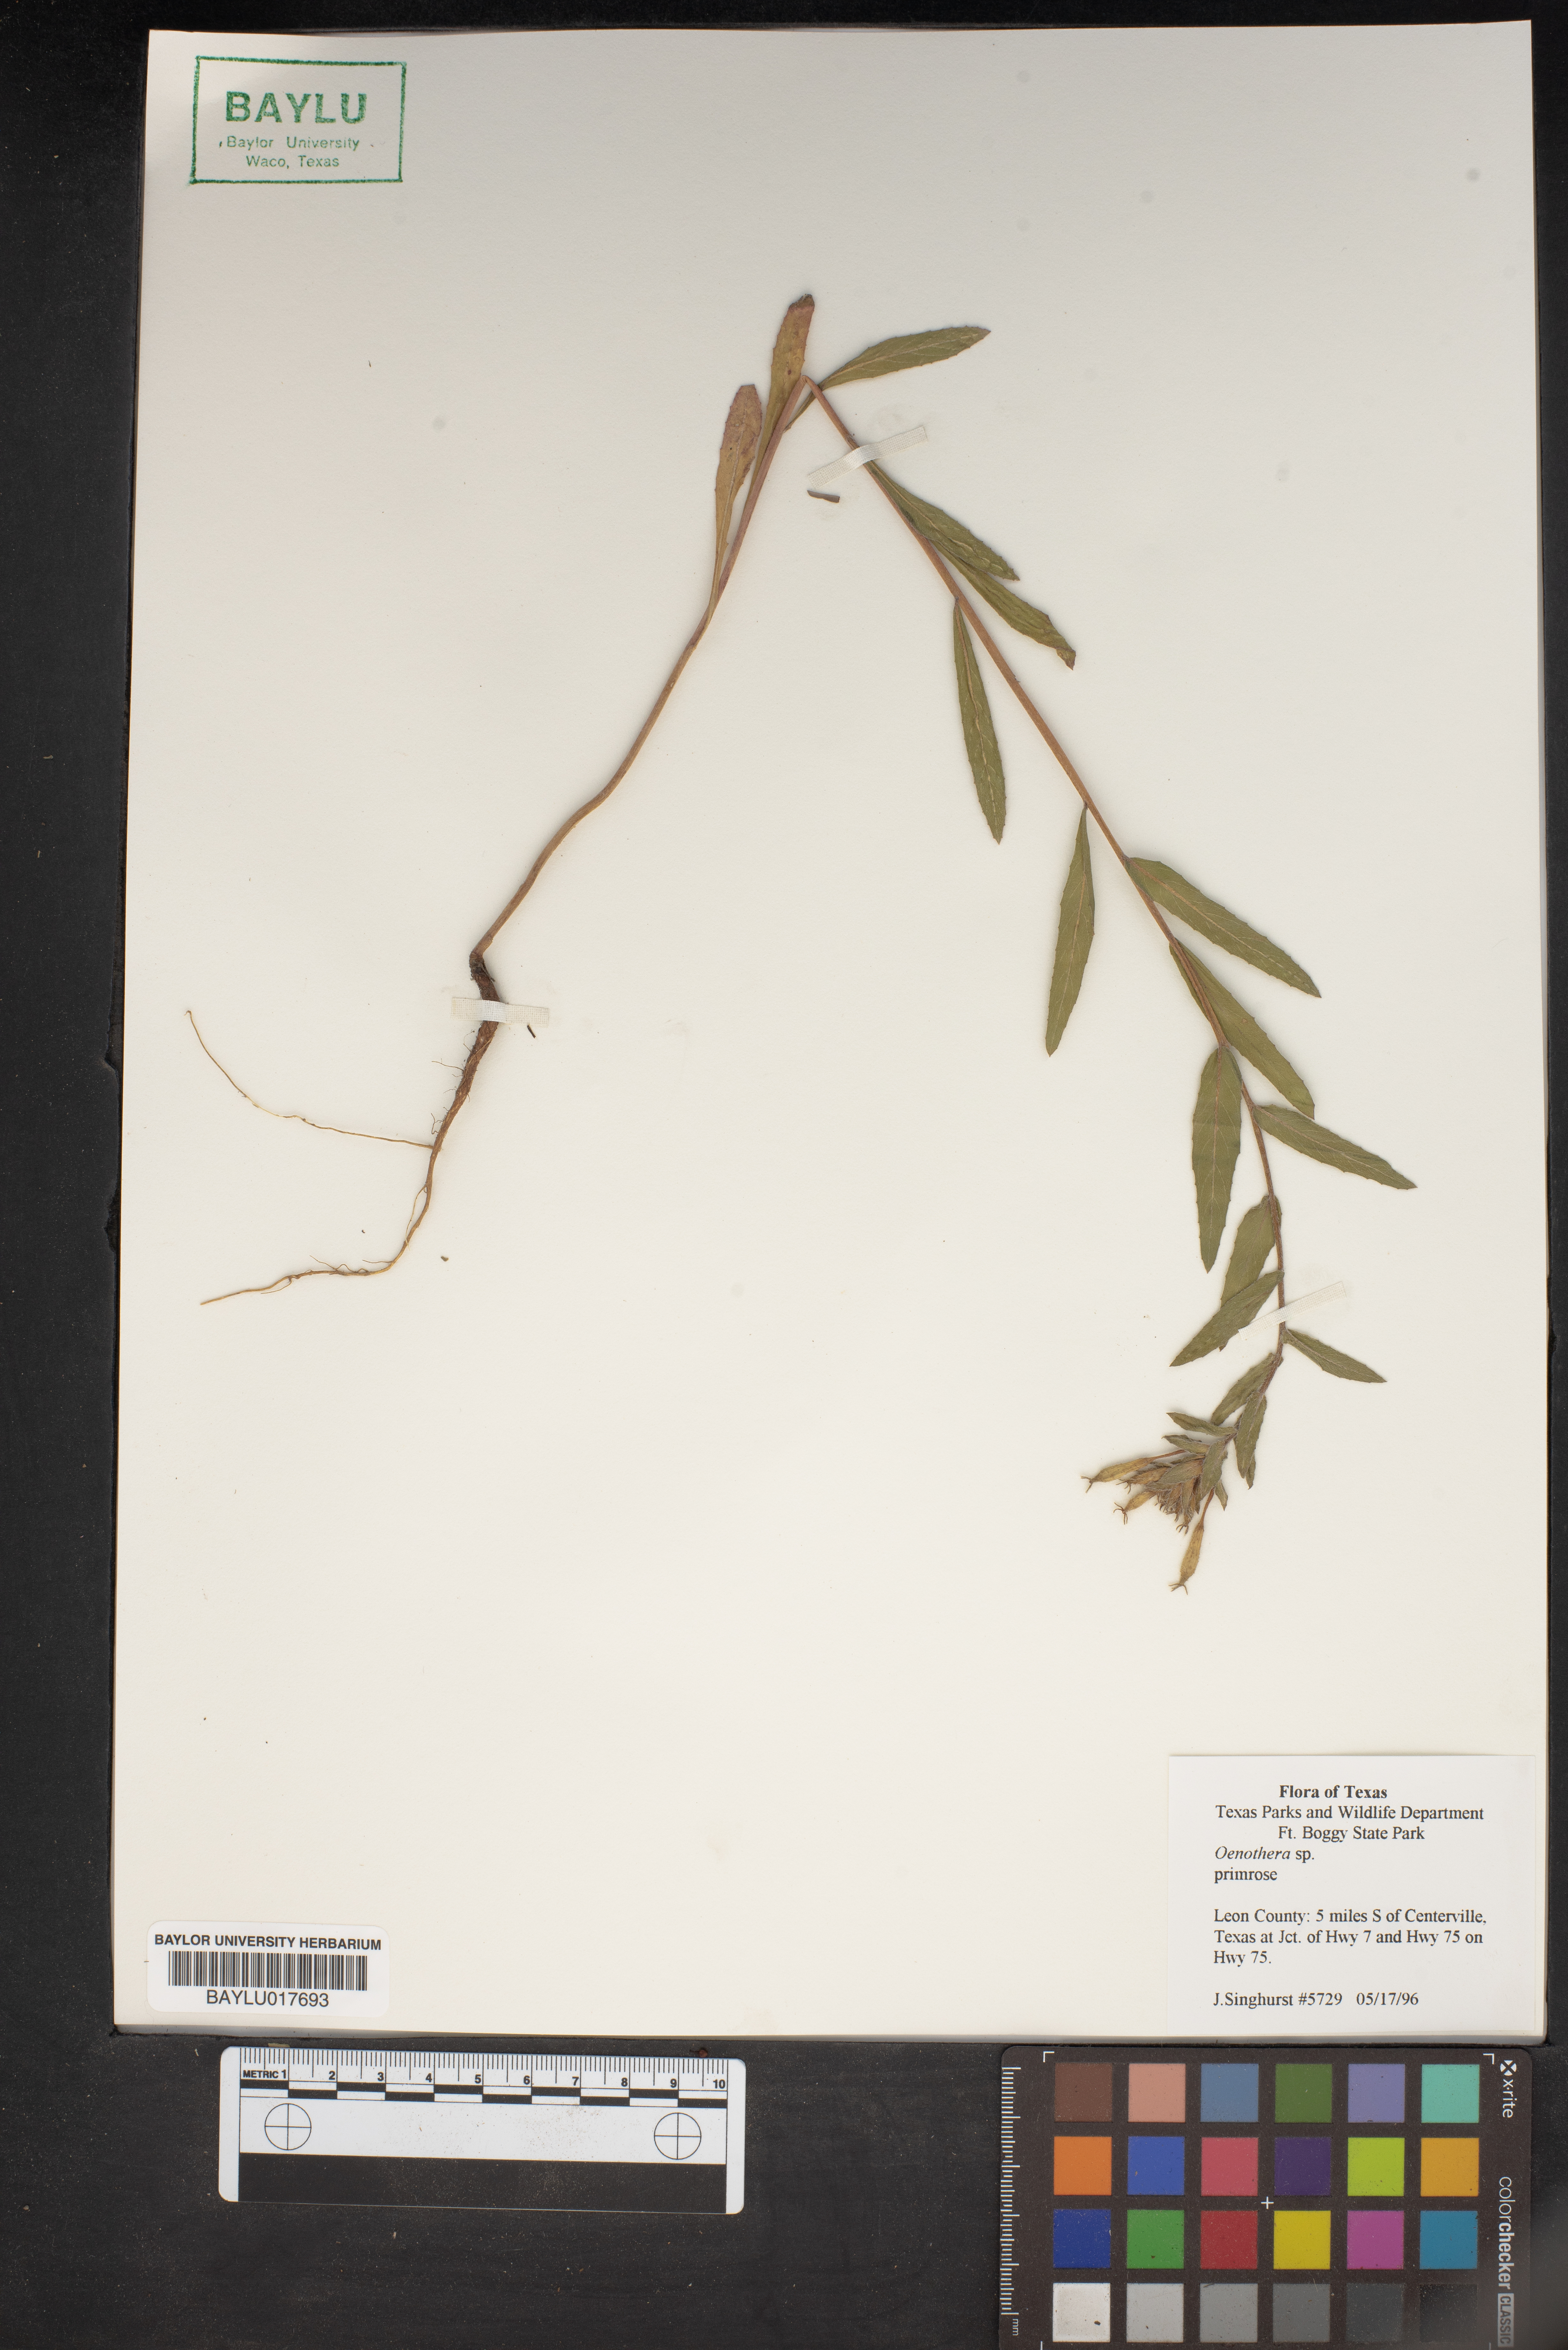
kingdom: Plantae
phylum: Tracheophyta
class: Magnoliopsida
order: Myrtales
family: Onagraceae
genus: Oenothera
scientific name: Oenothera
